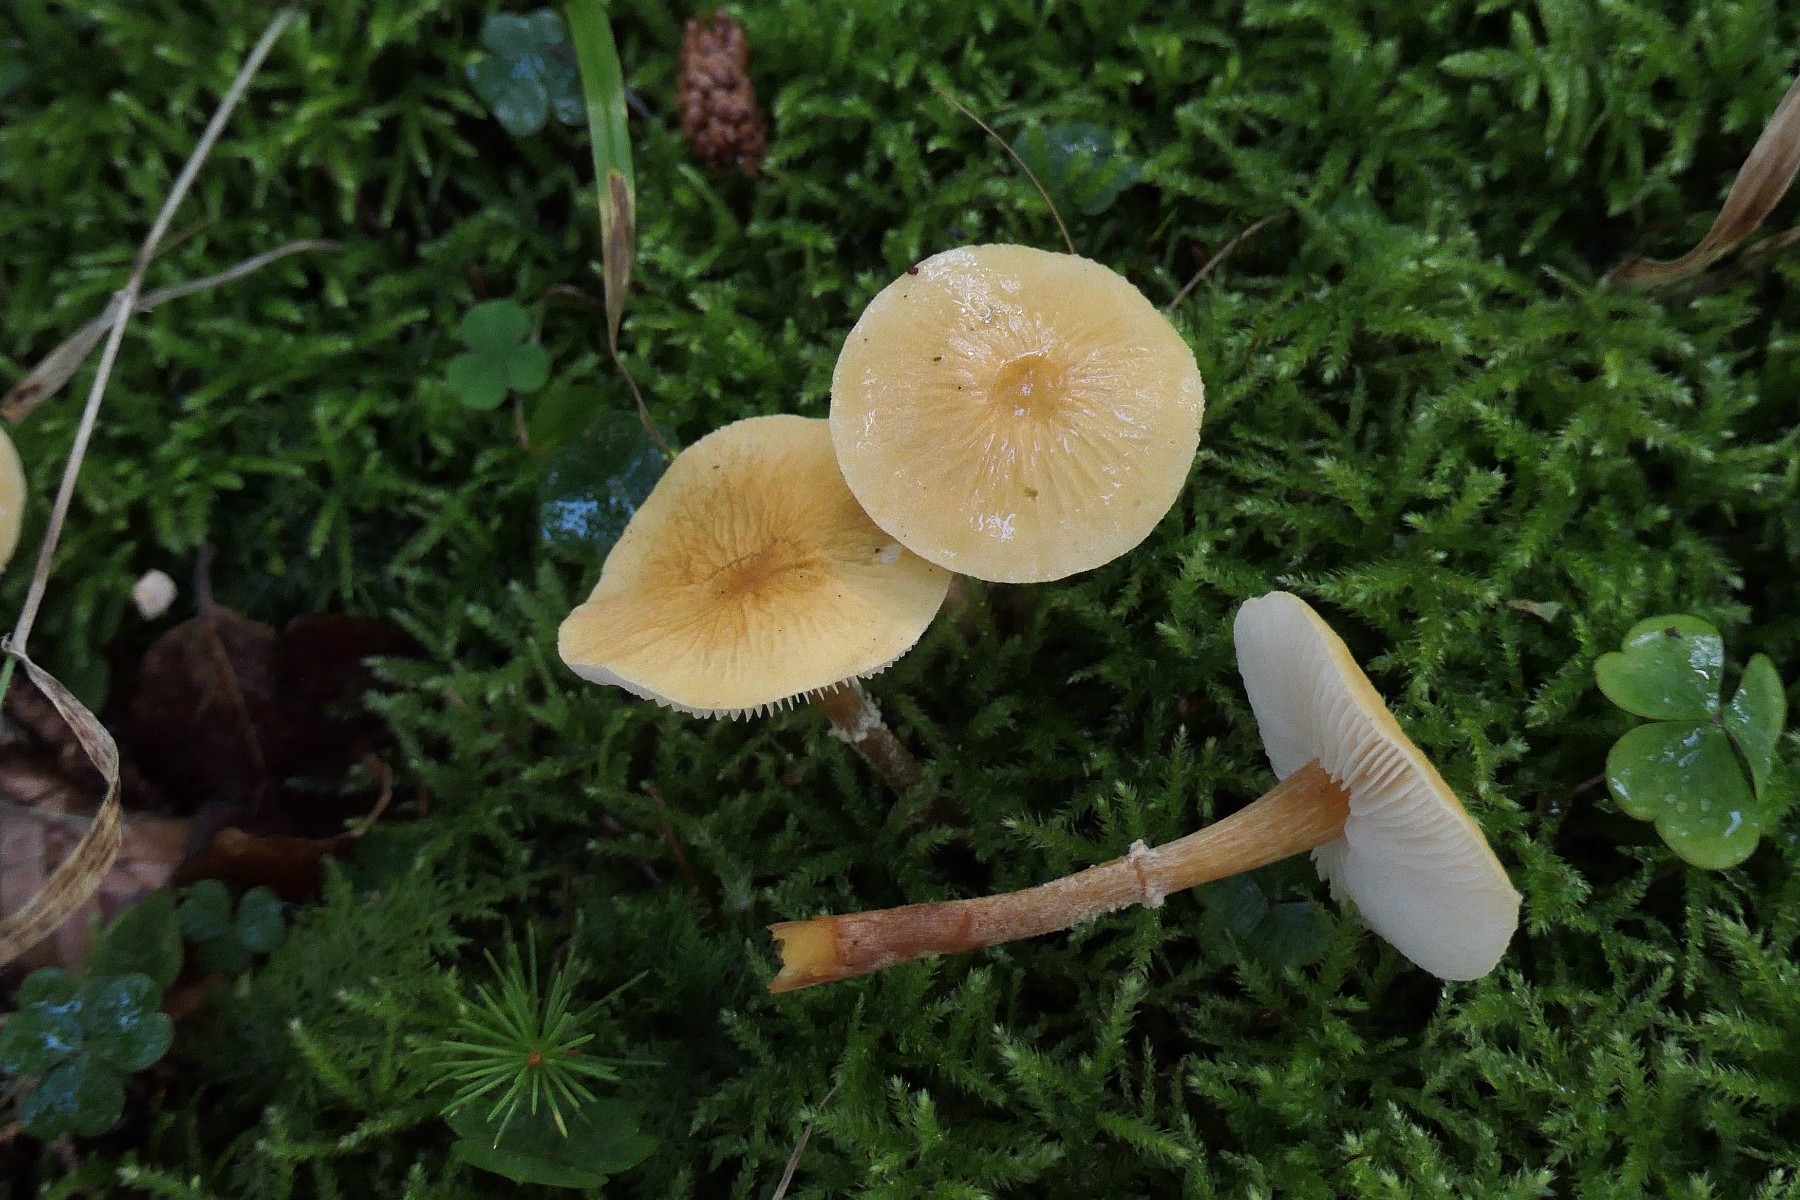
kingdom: Fungi
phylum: Basidiomycota
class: Agaricomycetes
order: Agaricales
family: Tricholomataceae
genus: Cystoderma
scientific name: Cystoderma amianthinum
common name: okkergul grynhat
